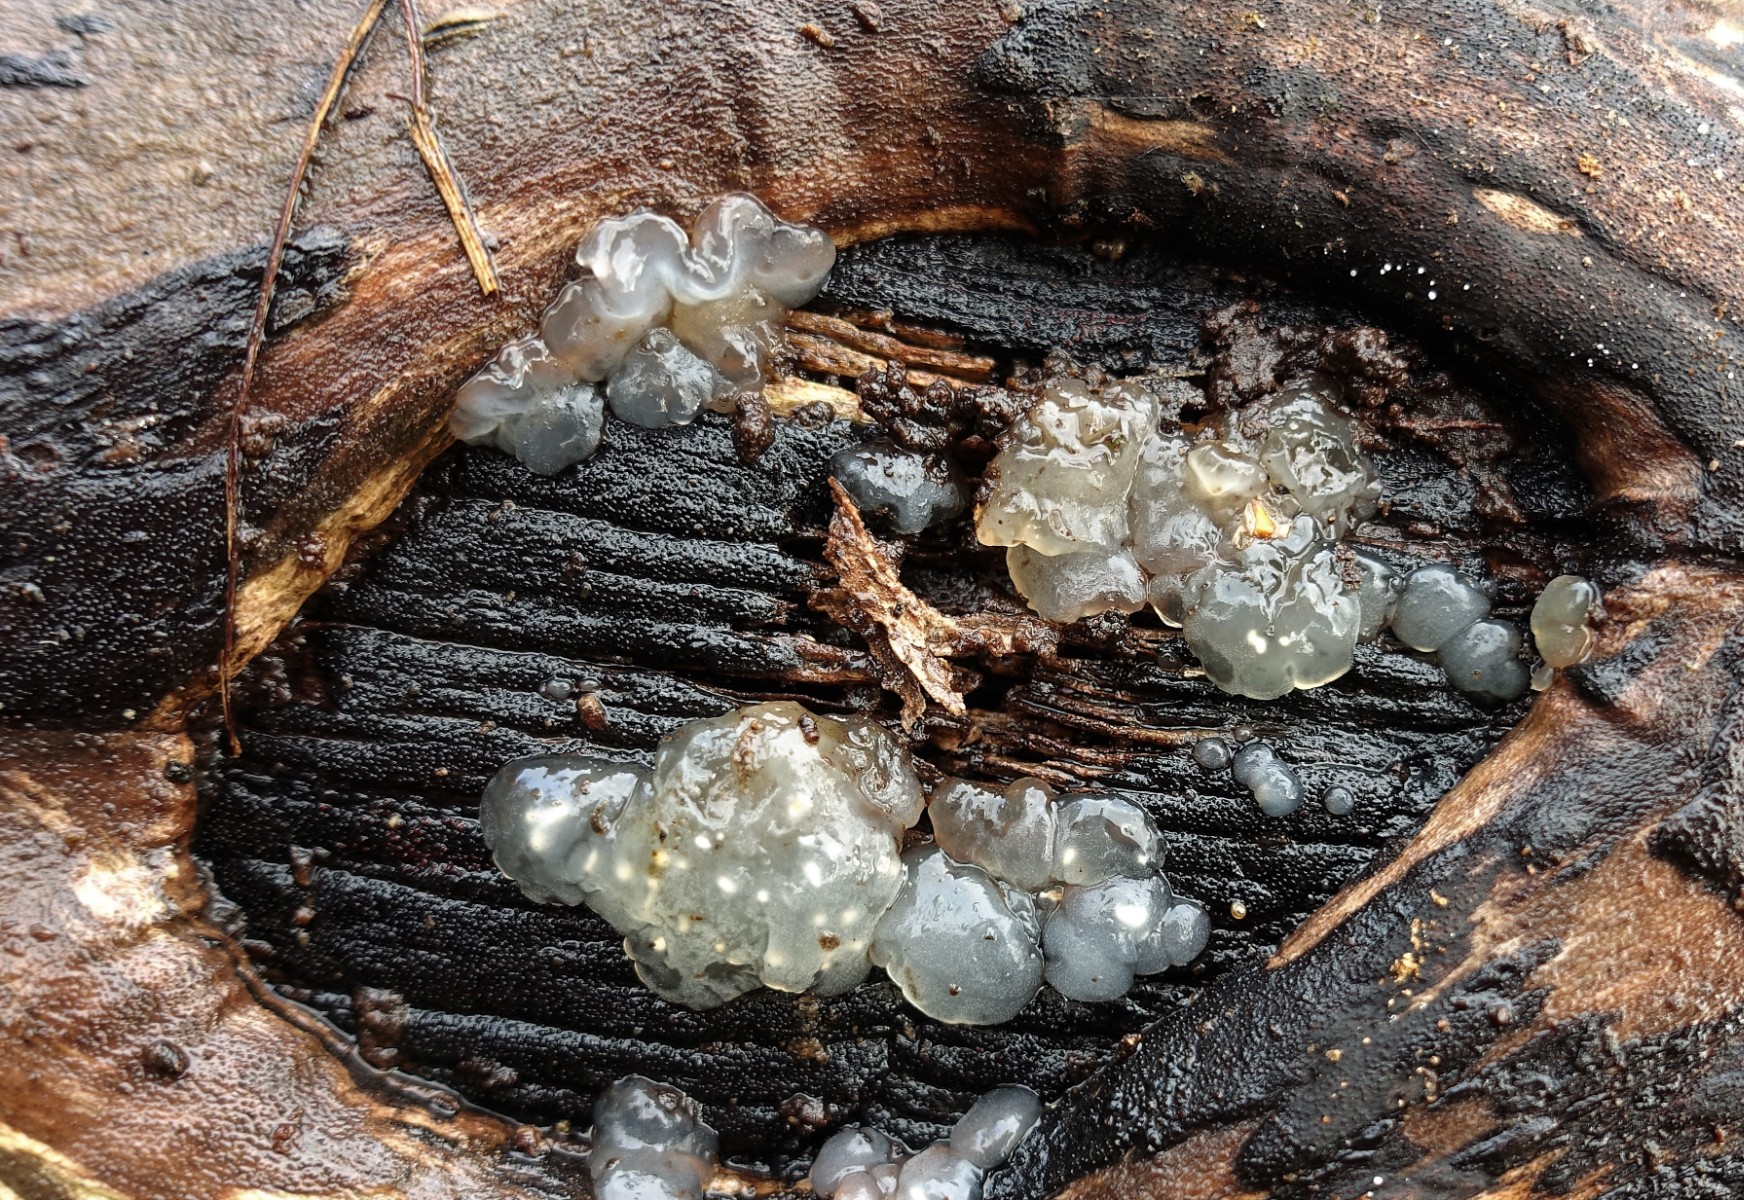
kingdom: Fungi
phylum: Basidiomycota
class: Agaricomycetes
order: Auriculariales
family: Hyaloriaceae
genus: Myxarium
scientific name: Myxarium nucleatum
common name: klar bævretop
